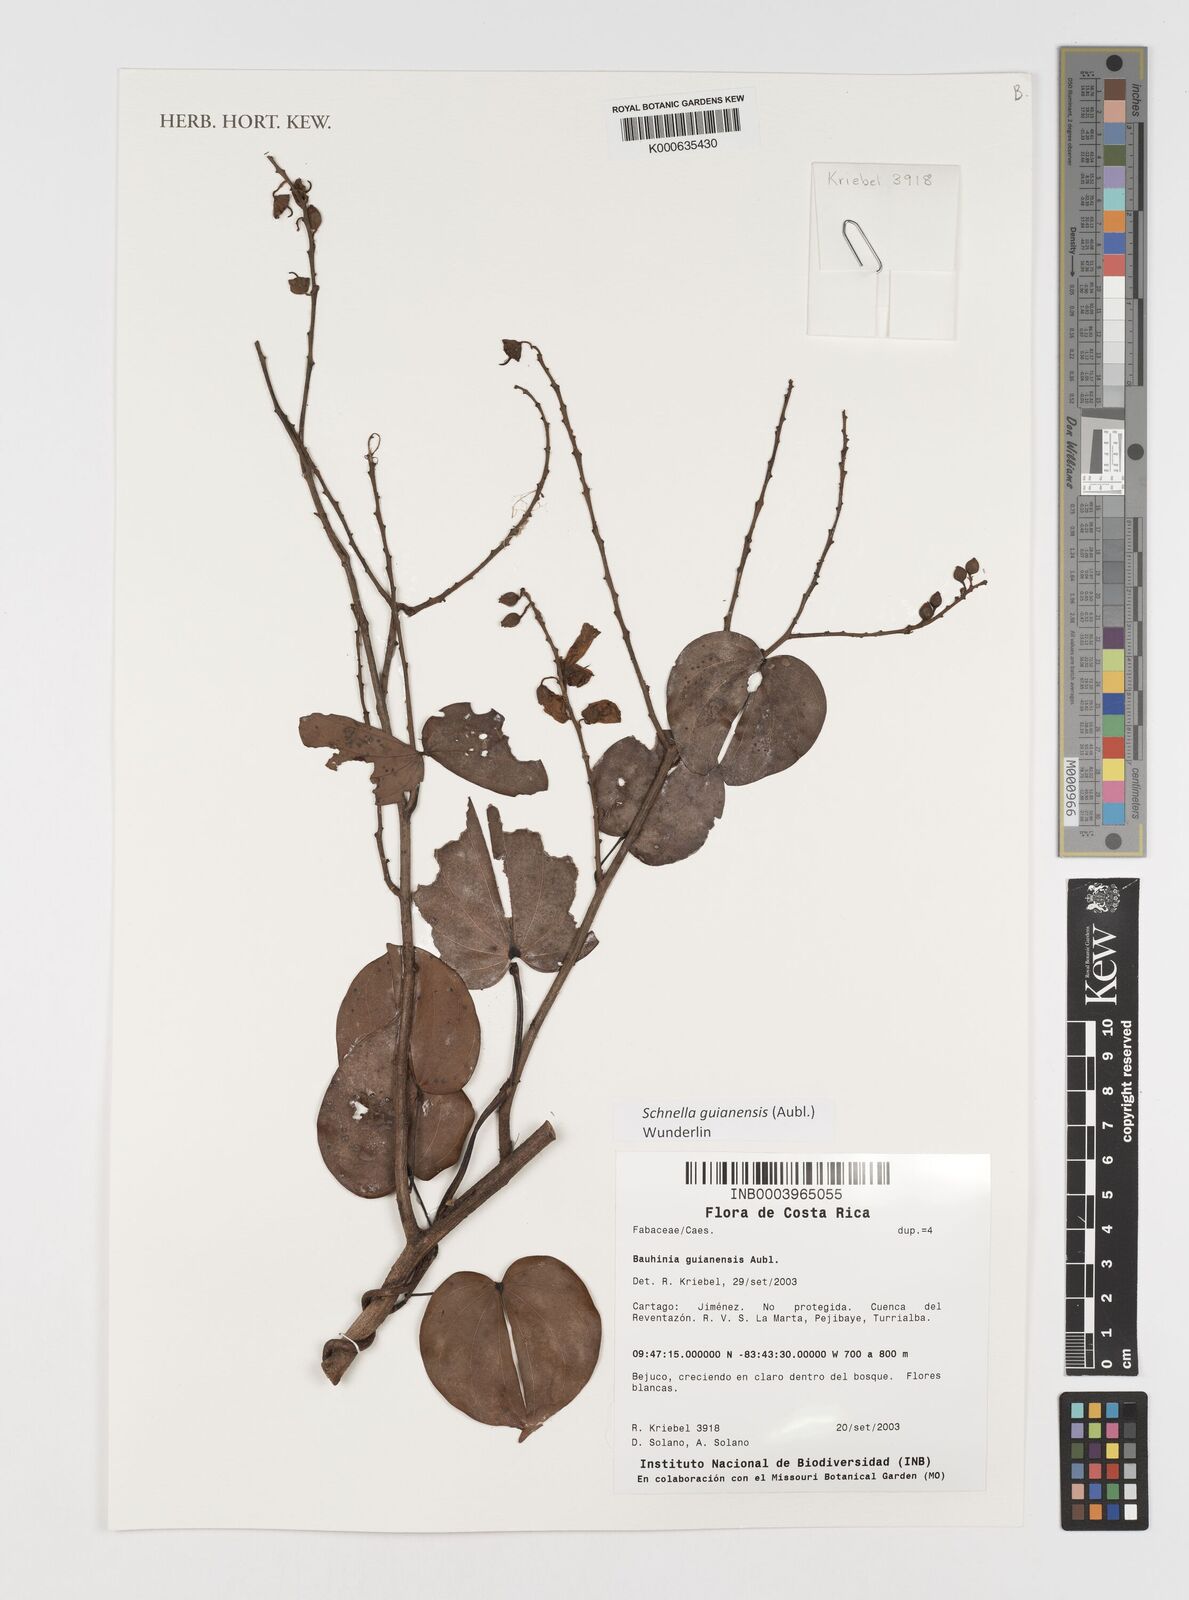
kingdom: Plantae
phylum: Tracheophyta
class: Magnoliopsida
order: Fabales
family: Fabaceae
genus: Schnella
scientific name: Schnella guianensis
